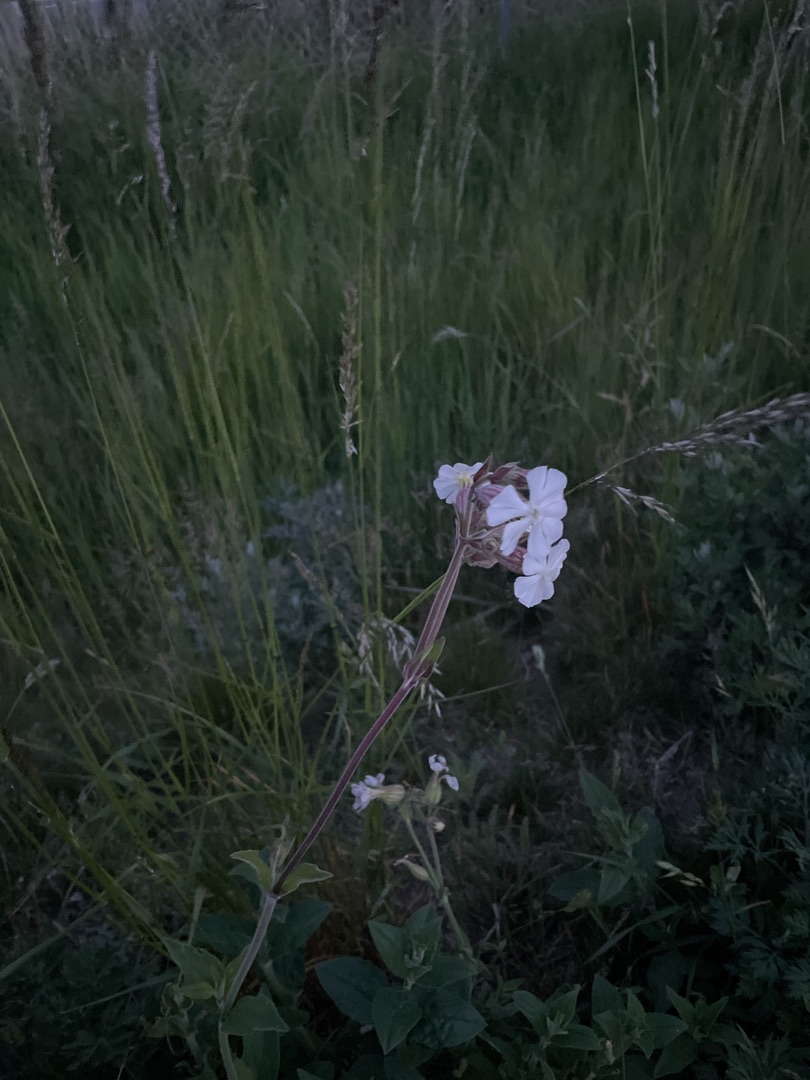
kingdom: Plantae
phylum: Tracheophyta
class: Magnoliopsida
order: Caryophyllales
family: Caryophyllaceae
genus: Silene
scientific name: Silene latifolia
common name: Aftenpragtstjerne
